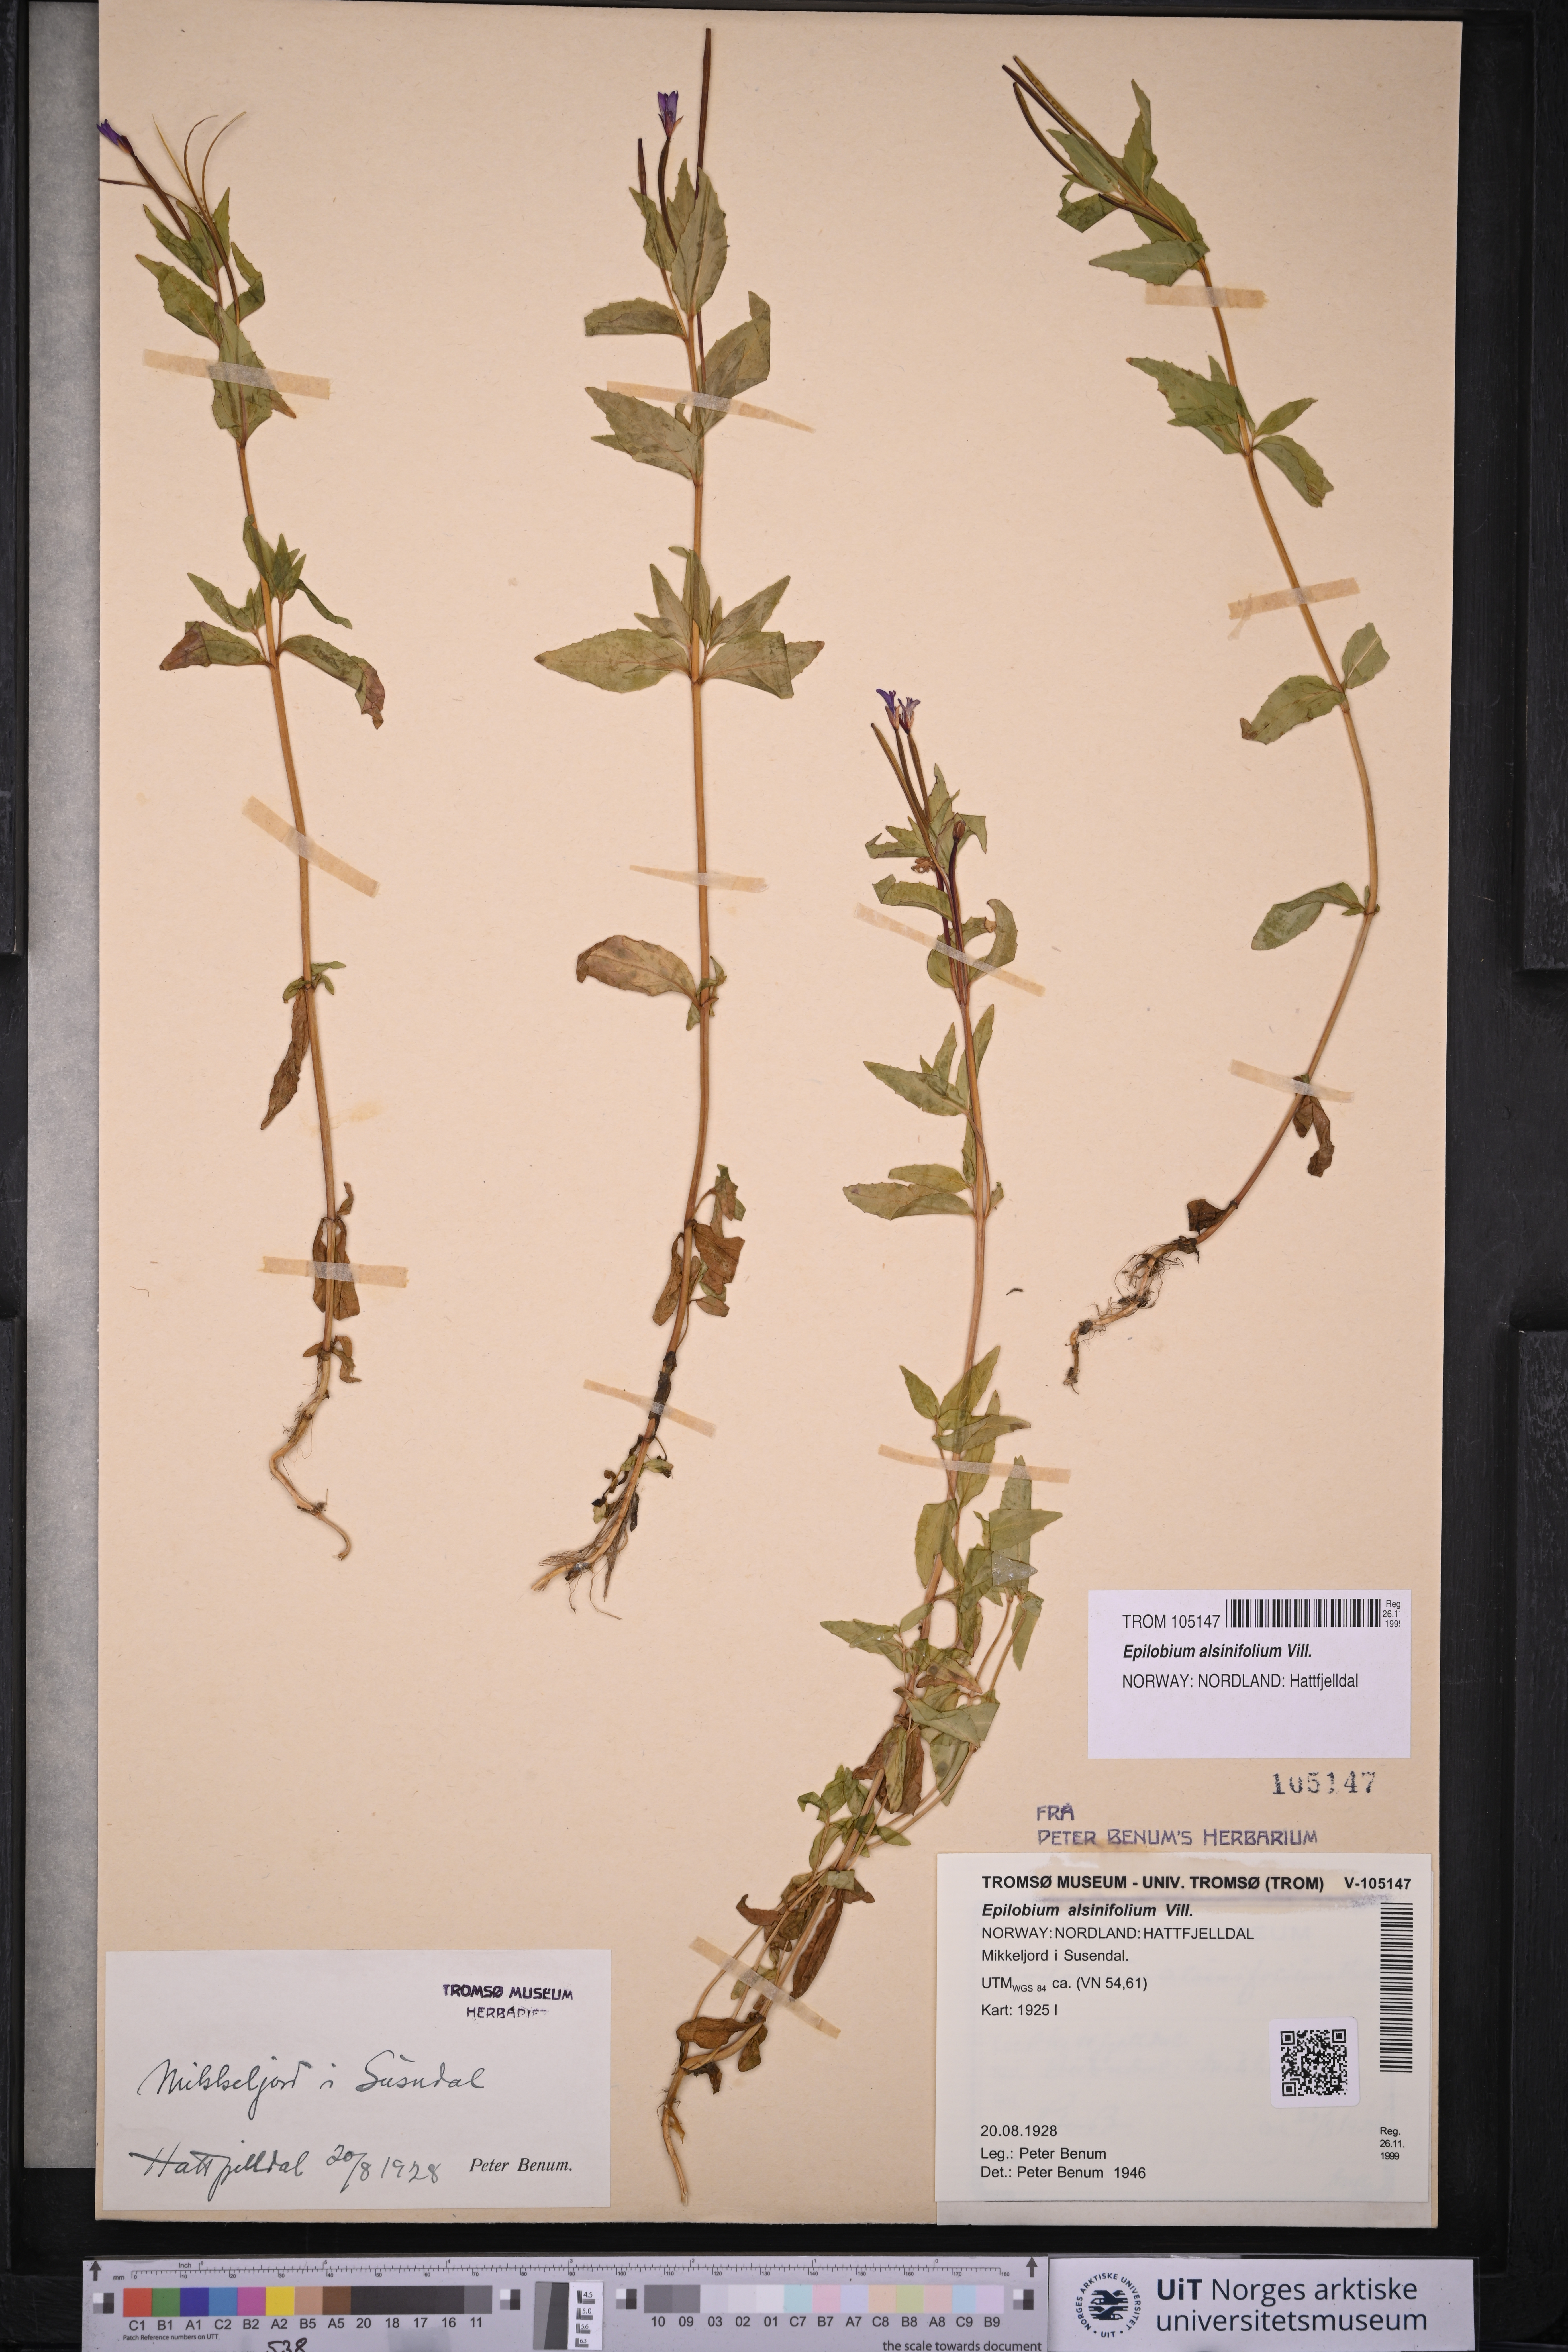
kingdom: Plantae
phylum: Tracheophyta
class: Magnoliopsida
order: Myrtales
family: Onagraceae
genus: Epilobium
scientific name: Epilobium alsinifolium
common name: Chickweed willowherb
